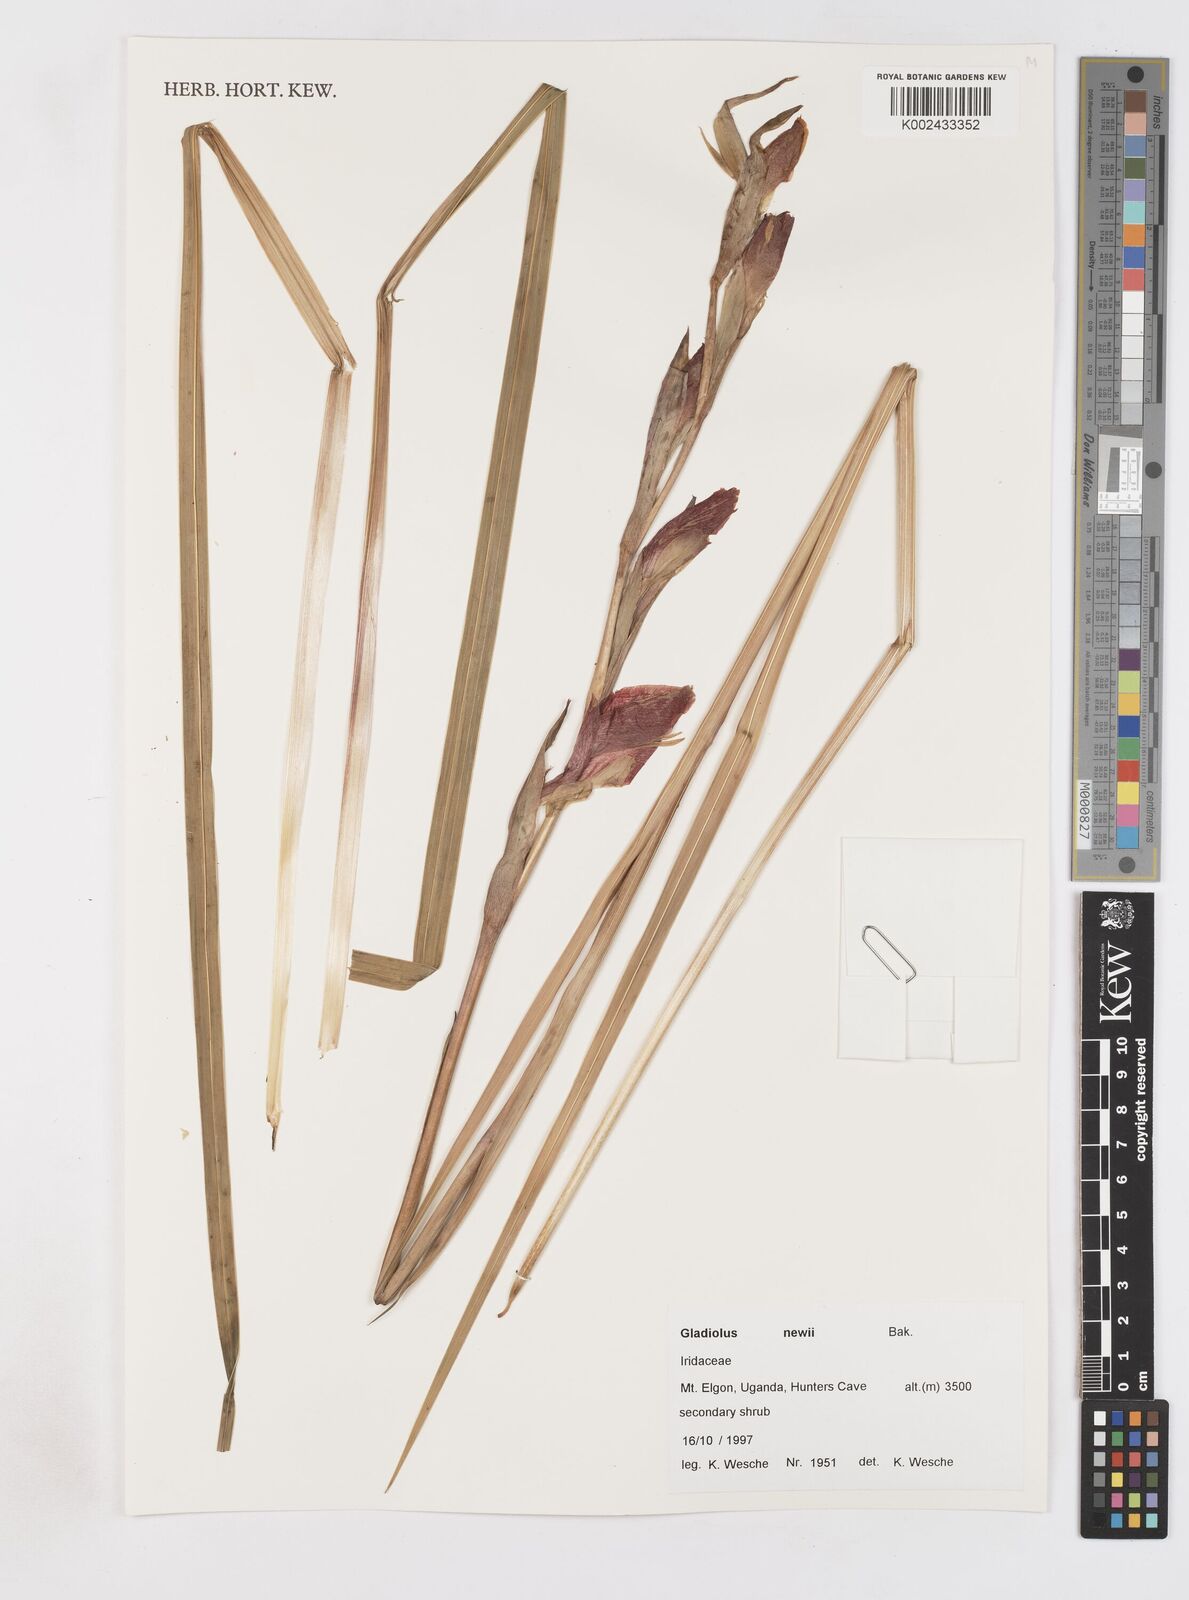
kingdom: Plantae
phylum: Tracheophyta
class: Liliopsida
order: Asparagales
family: Iridaceae
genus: Gladiolus
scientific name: Gladiolus dalenii
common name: Cornflag
